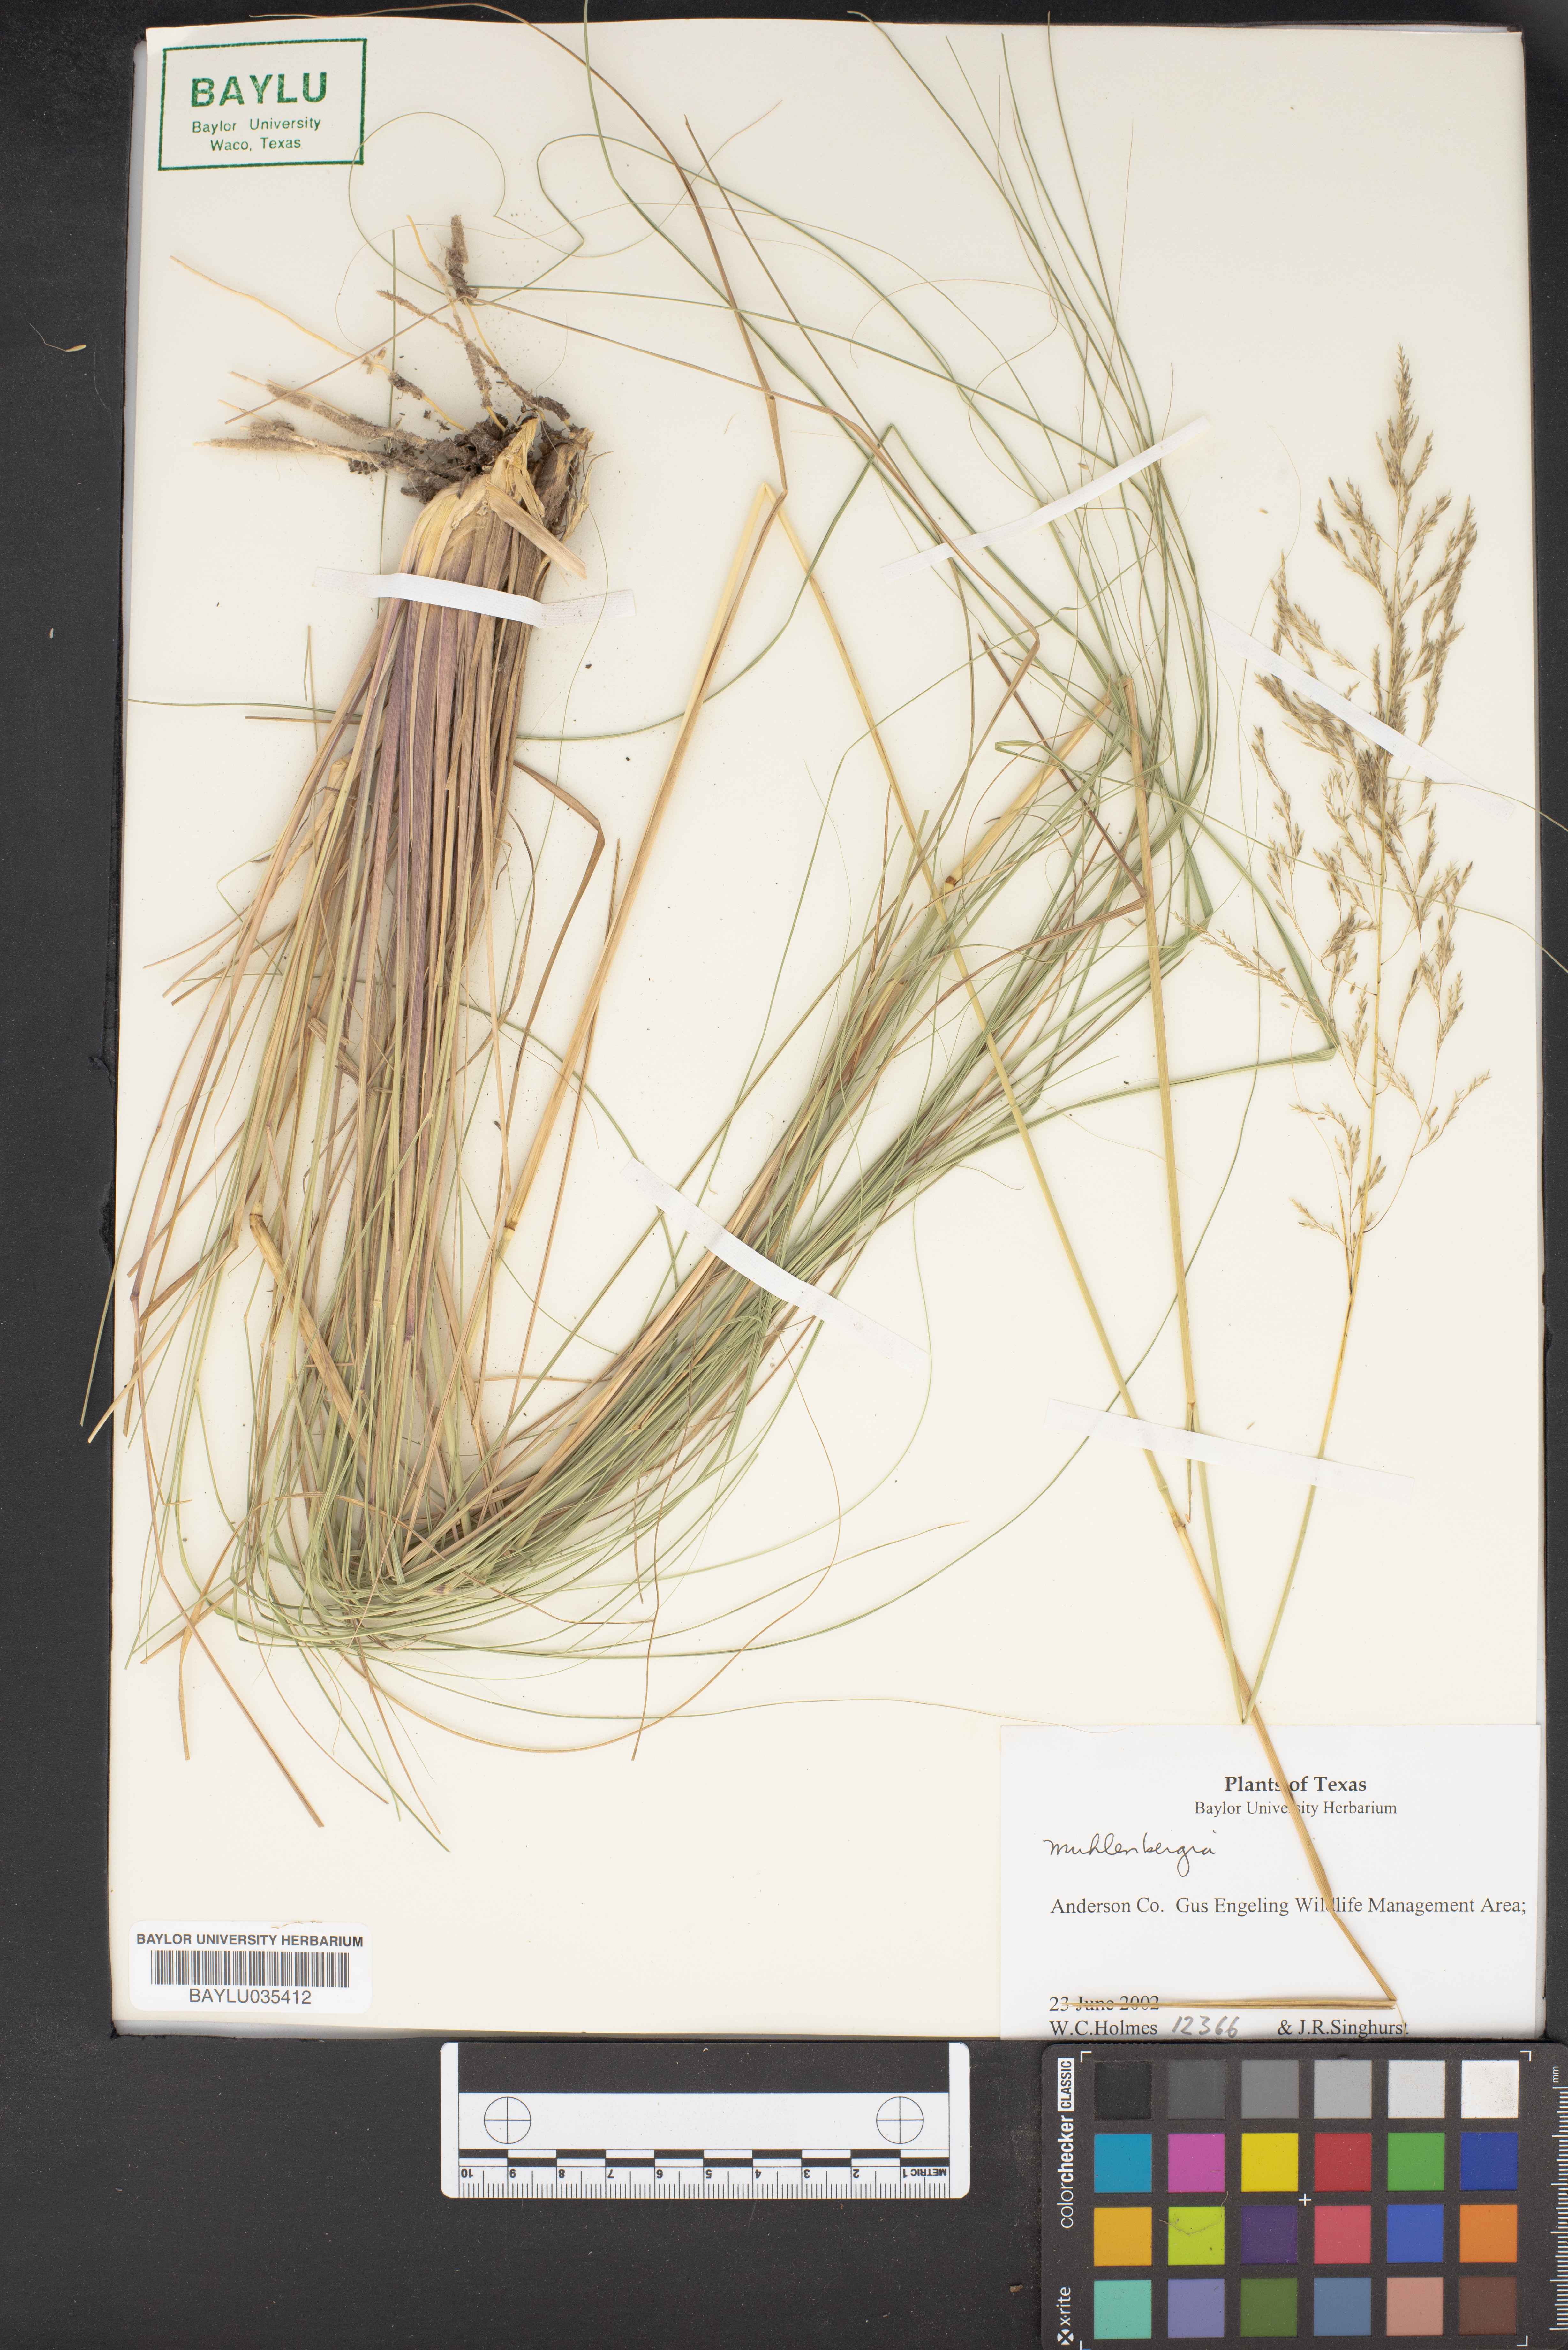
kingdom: Plantae
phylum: Tracheophyta
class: Liliopsida
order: Poales
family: Poaceae
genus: Muhlenbergia
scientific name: Muhlenbergia
